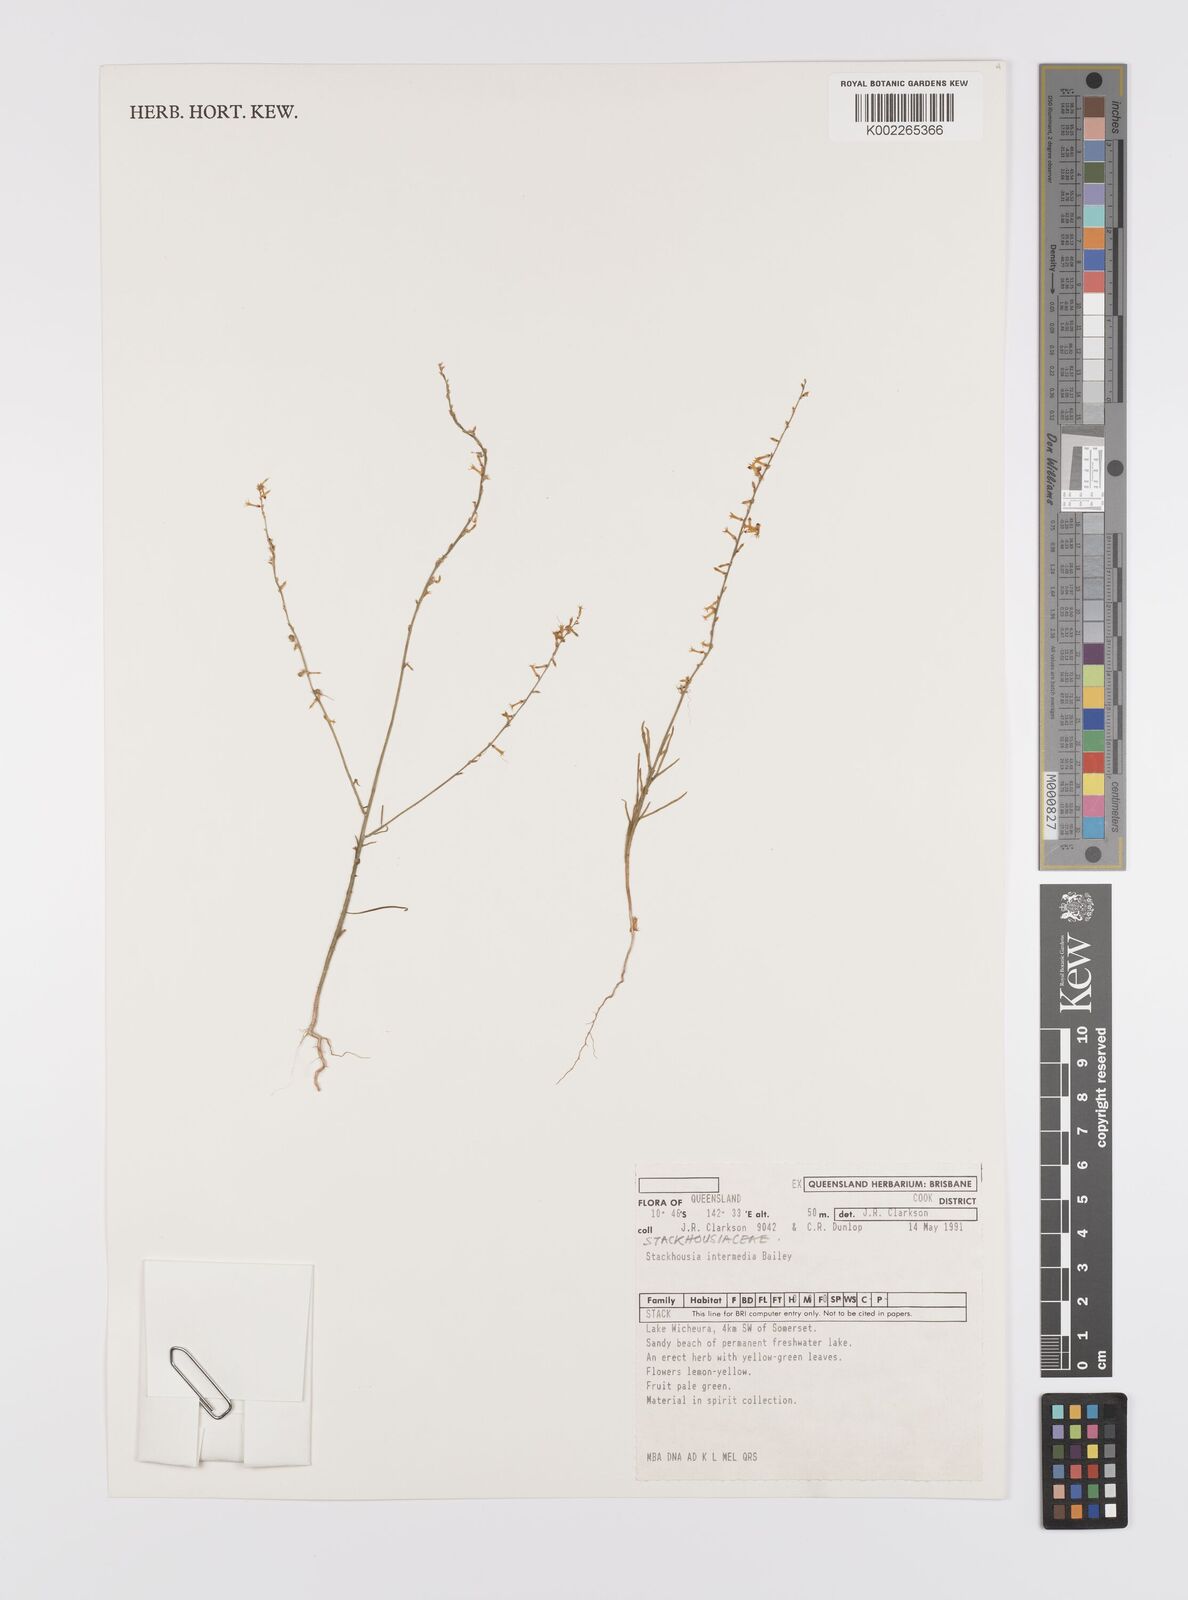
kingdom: Plantae
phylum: Tracheophyta
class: Magnoliopsida
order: Celastrales
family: Celastraceae
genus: Stackhousia
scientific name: Stackhousia intermedia
